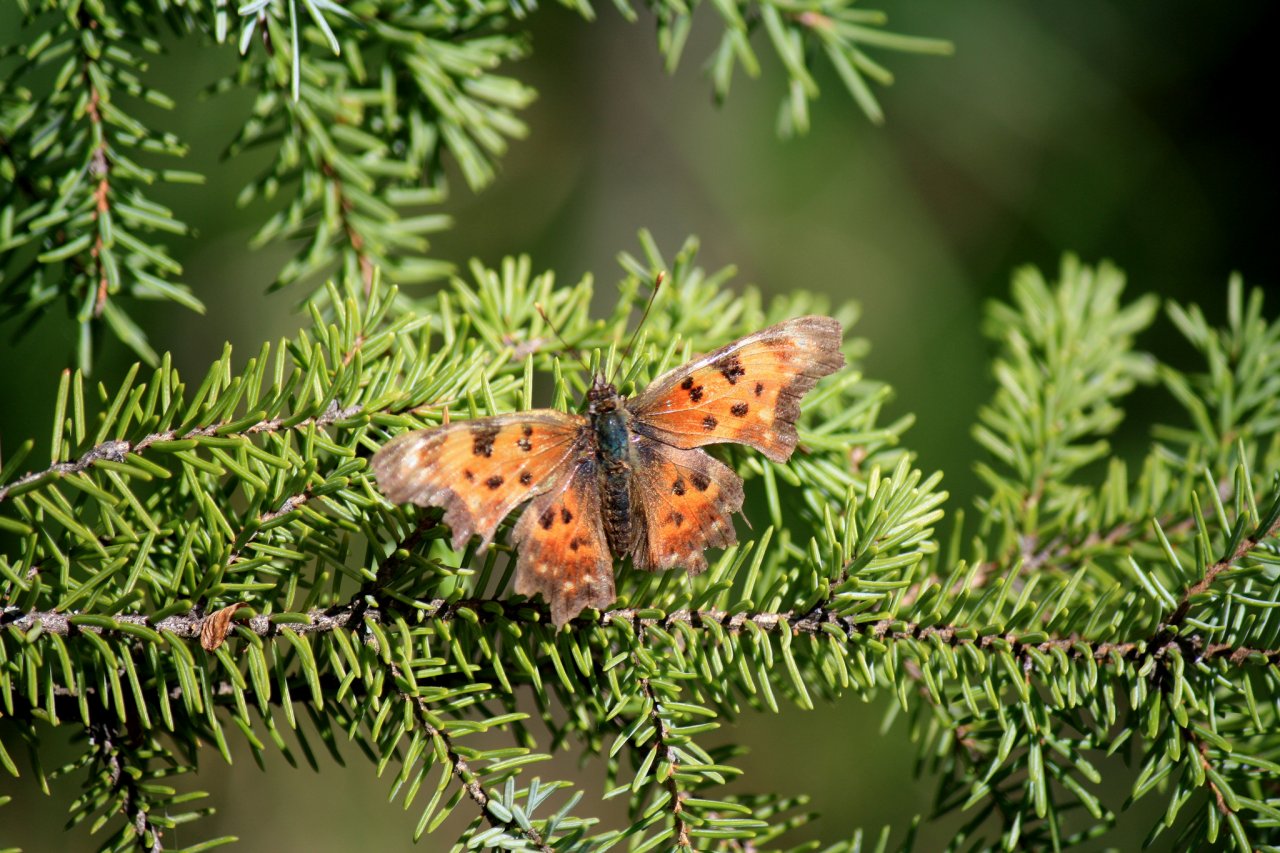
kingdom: Animalia
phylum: Arthropoda
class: Insecta
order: Lepidoptera
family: Nymphalidae
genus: Polygonia
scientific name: Polygonia faunus
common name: Green Comma
